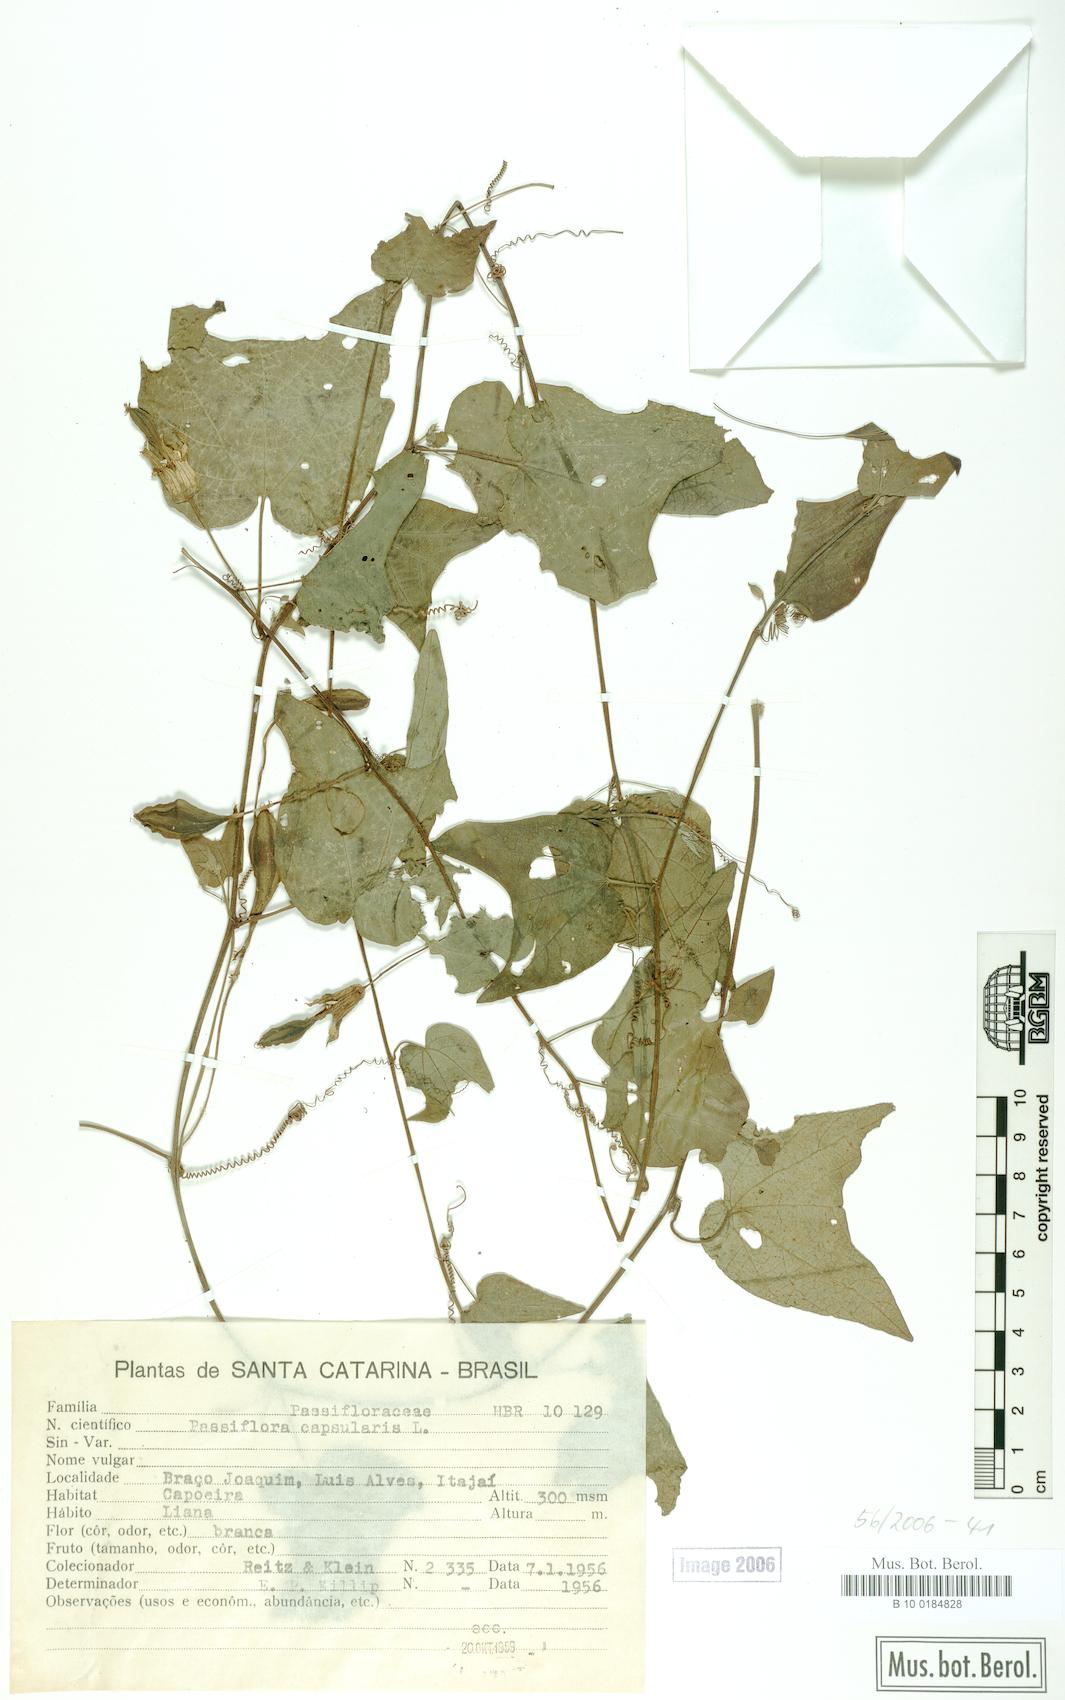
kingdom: Plantae
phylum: Tracheophyta
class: Magnoliopsida
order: Malpighiales
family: Passifloraceae
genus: Passiflora
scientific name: Passiflora capsularis
